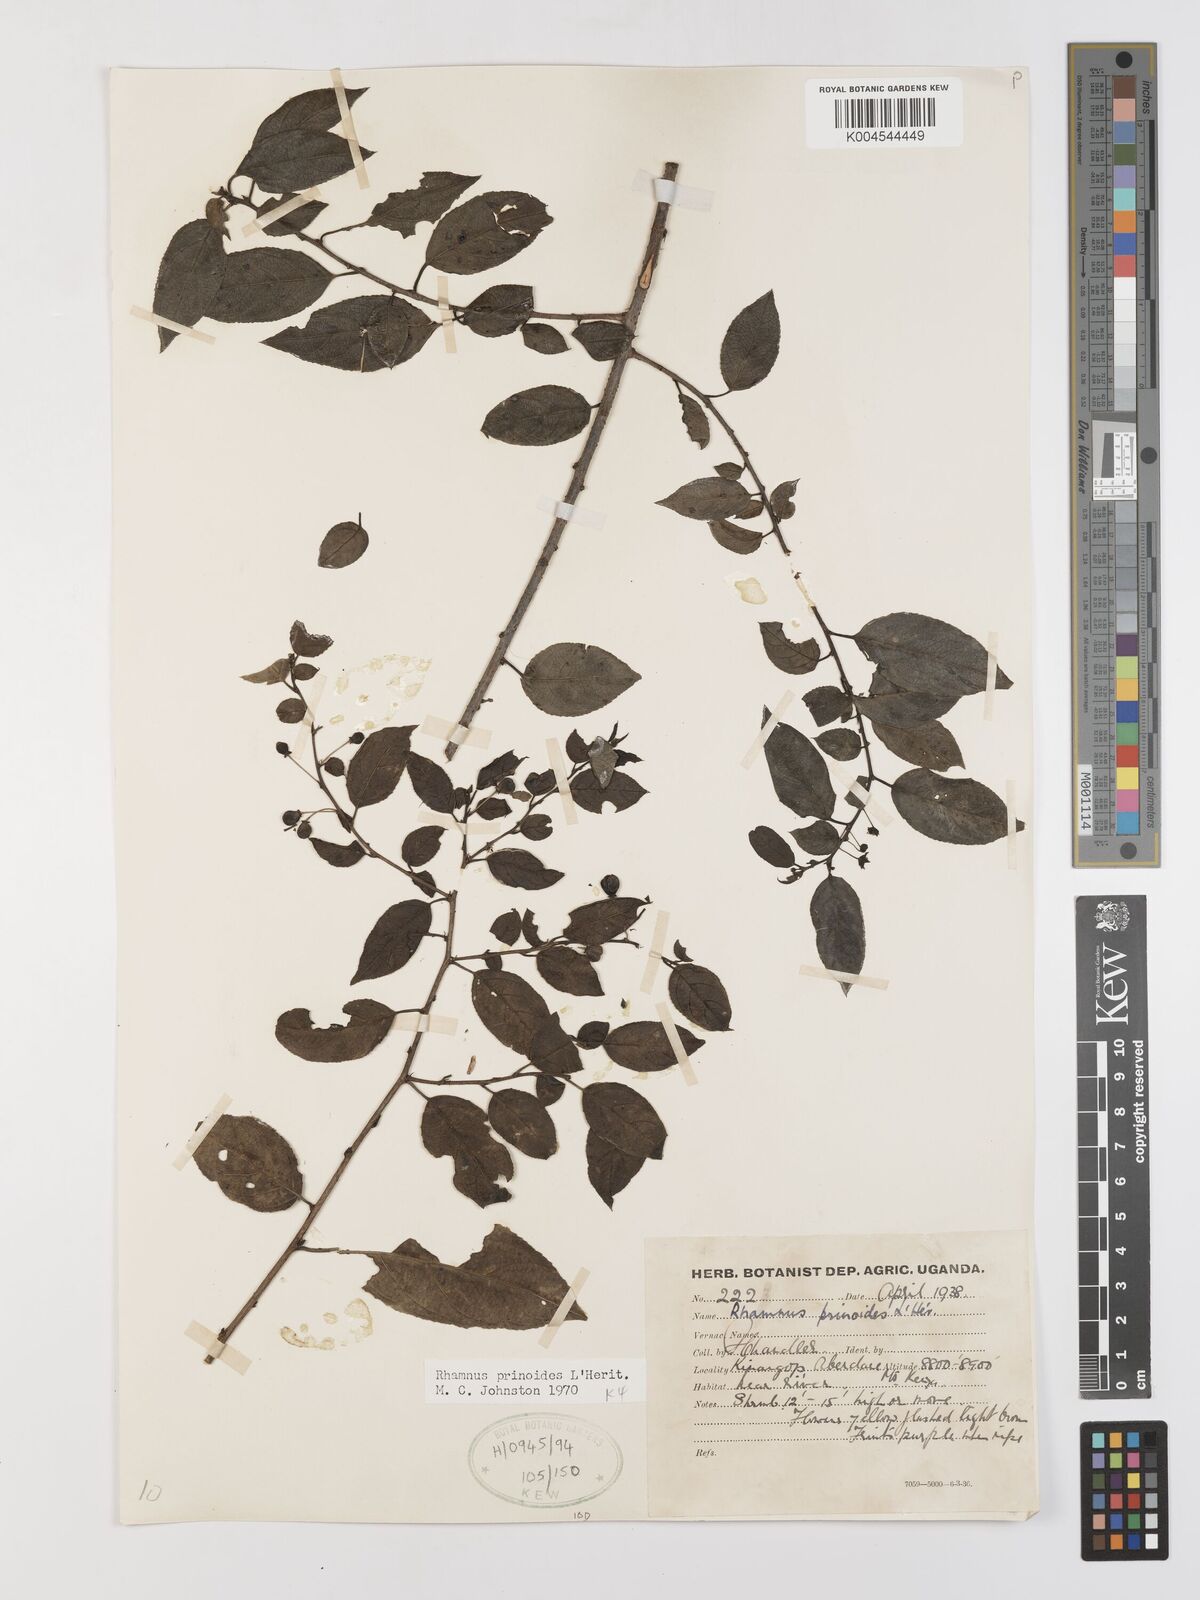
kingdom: Plantae
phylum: Tracheophyta
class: Magnoliopsida
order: Rosales
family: Rhamnaceae
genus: Rhamnus
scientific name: Rhamnus prinoides
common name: Dogwood
